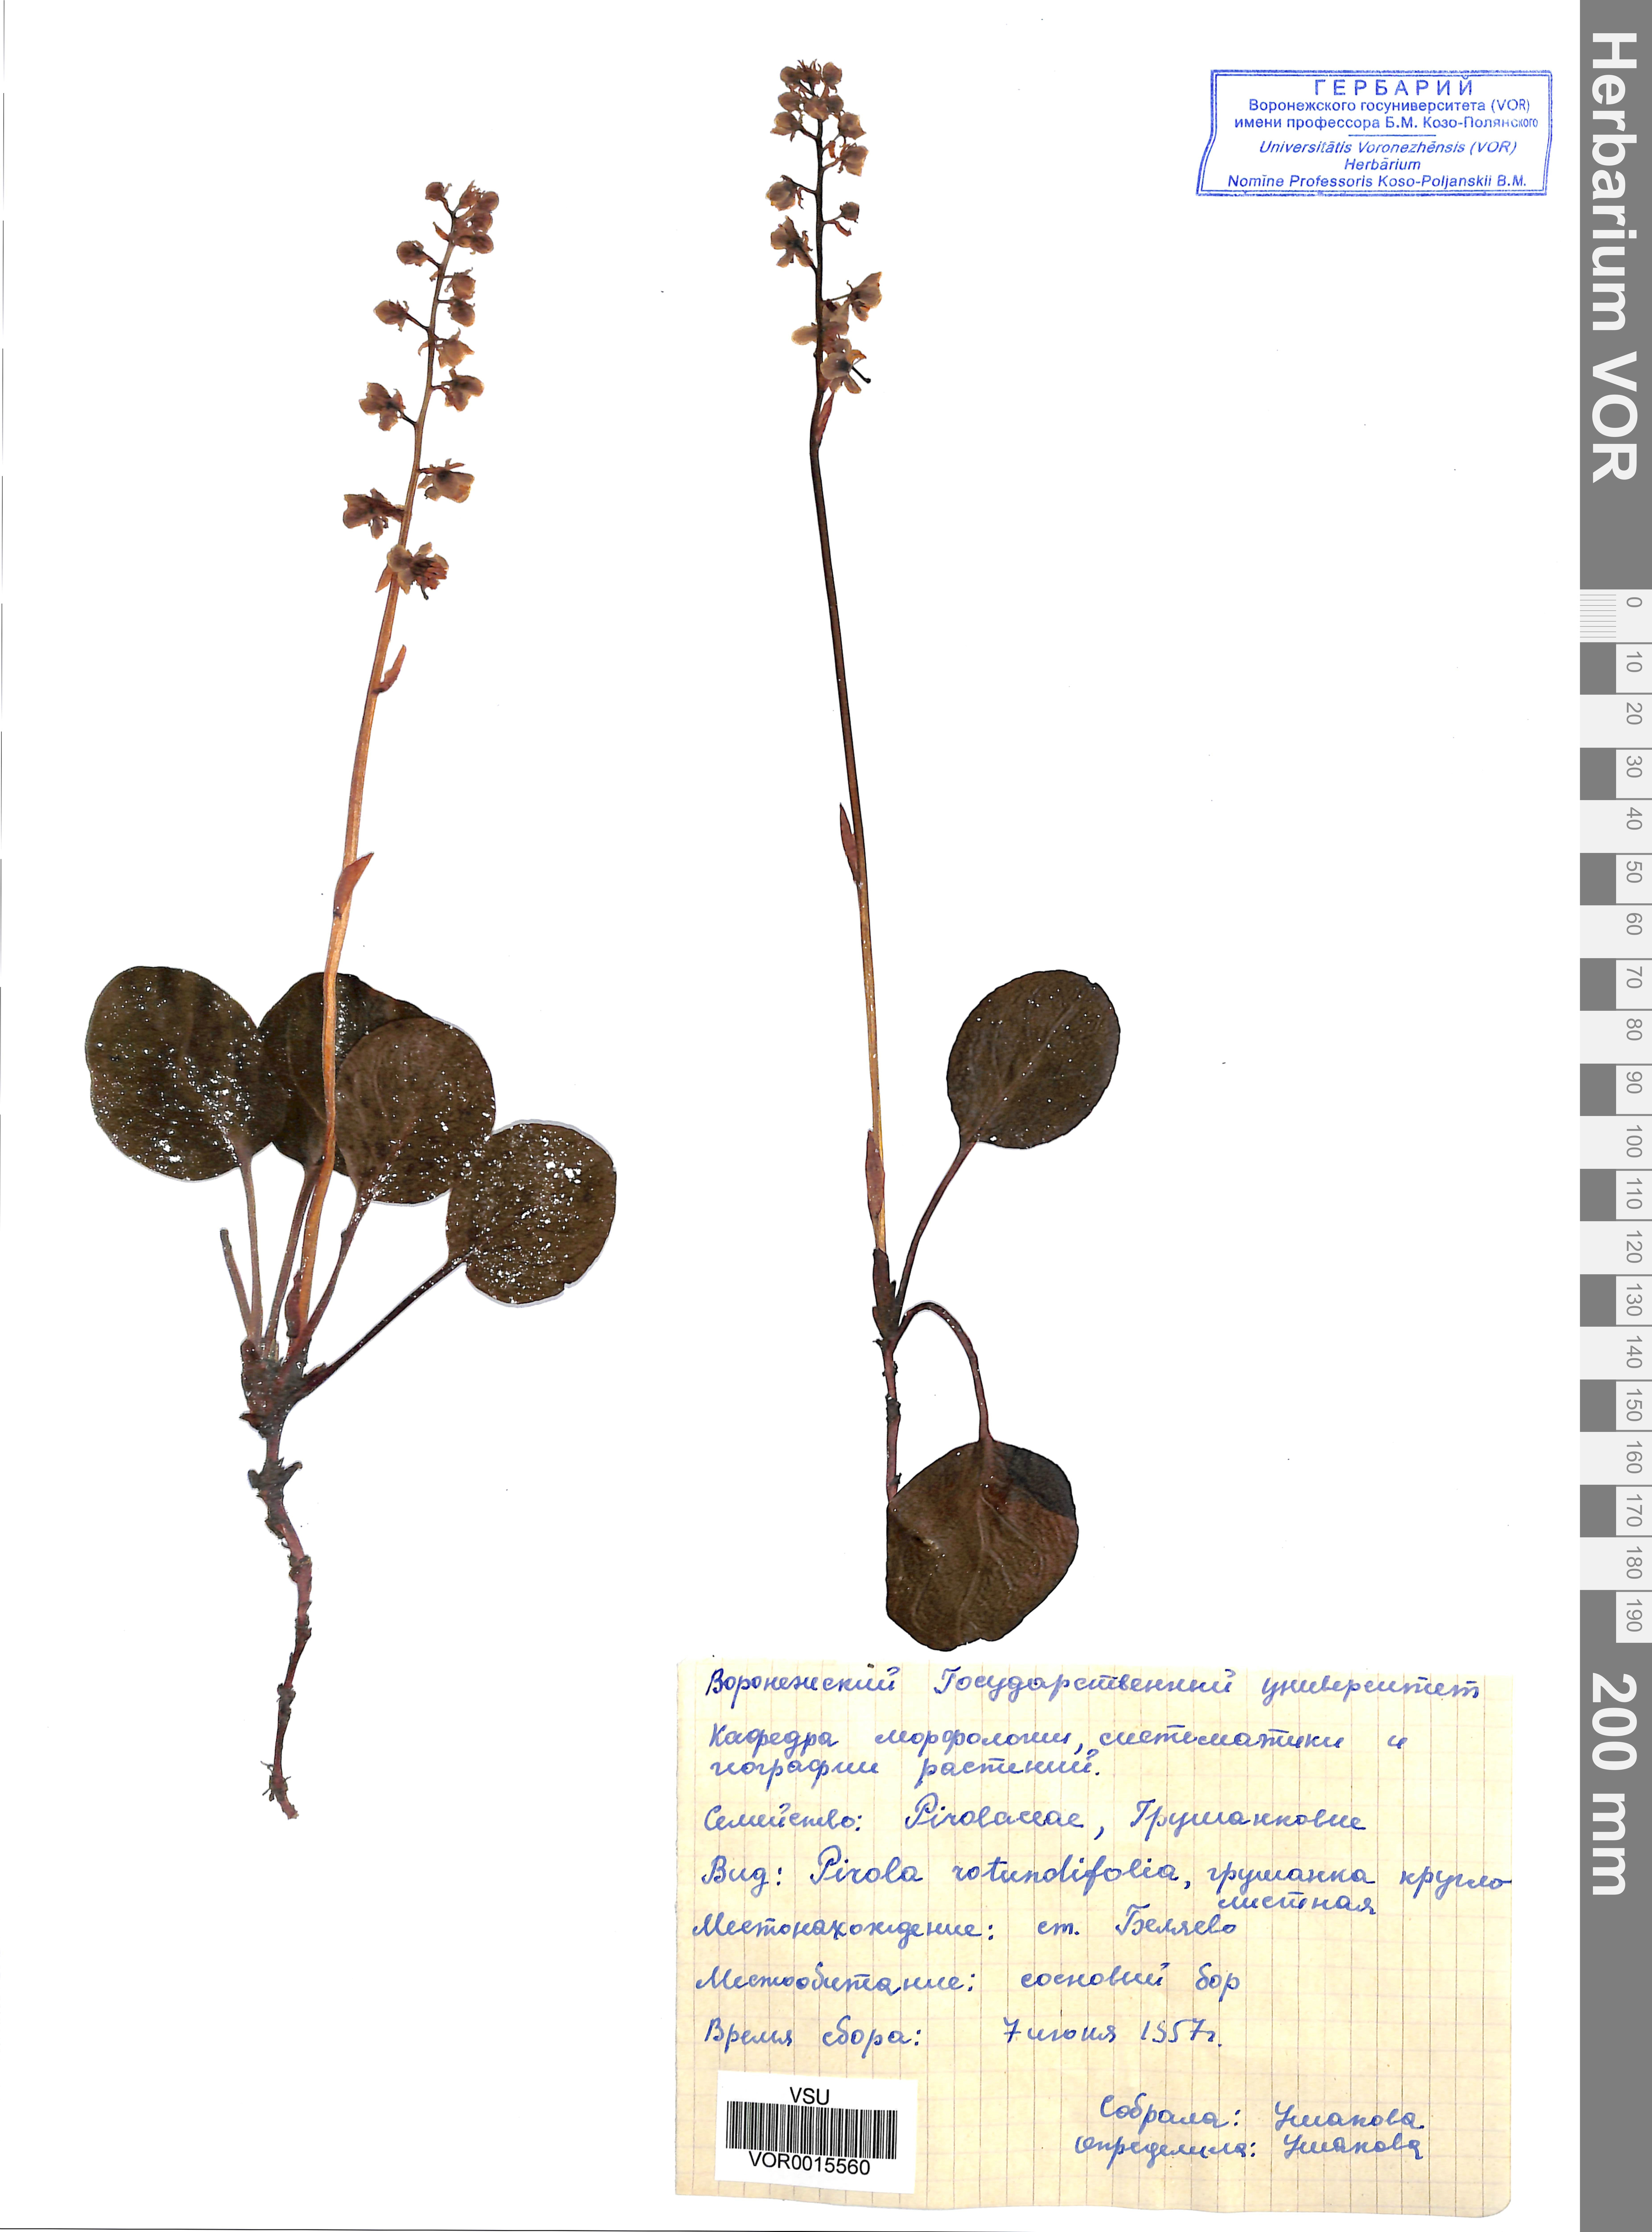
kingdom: Plantae
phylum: Tracheophyta
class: Magnoliopsida
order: Ericales
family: Ericaceae
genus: Pyrola
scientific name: Pyrola rotundifolia
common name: Round-leaved wintergreen
